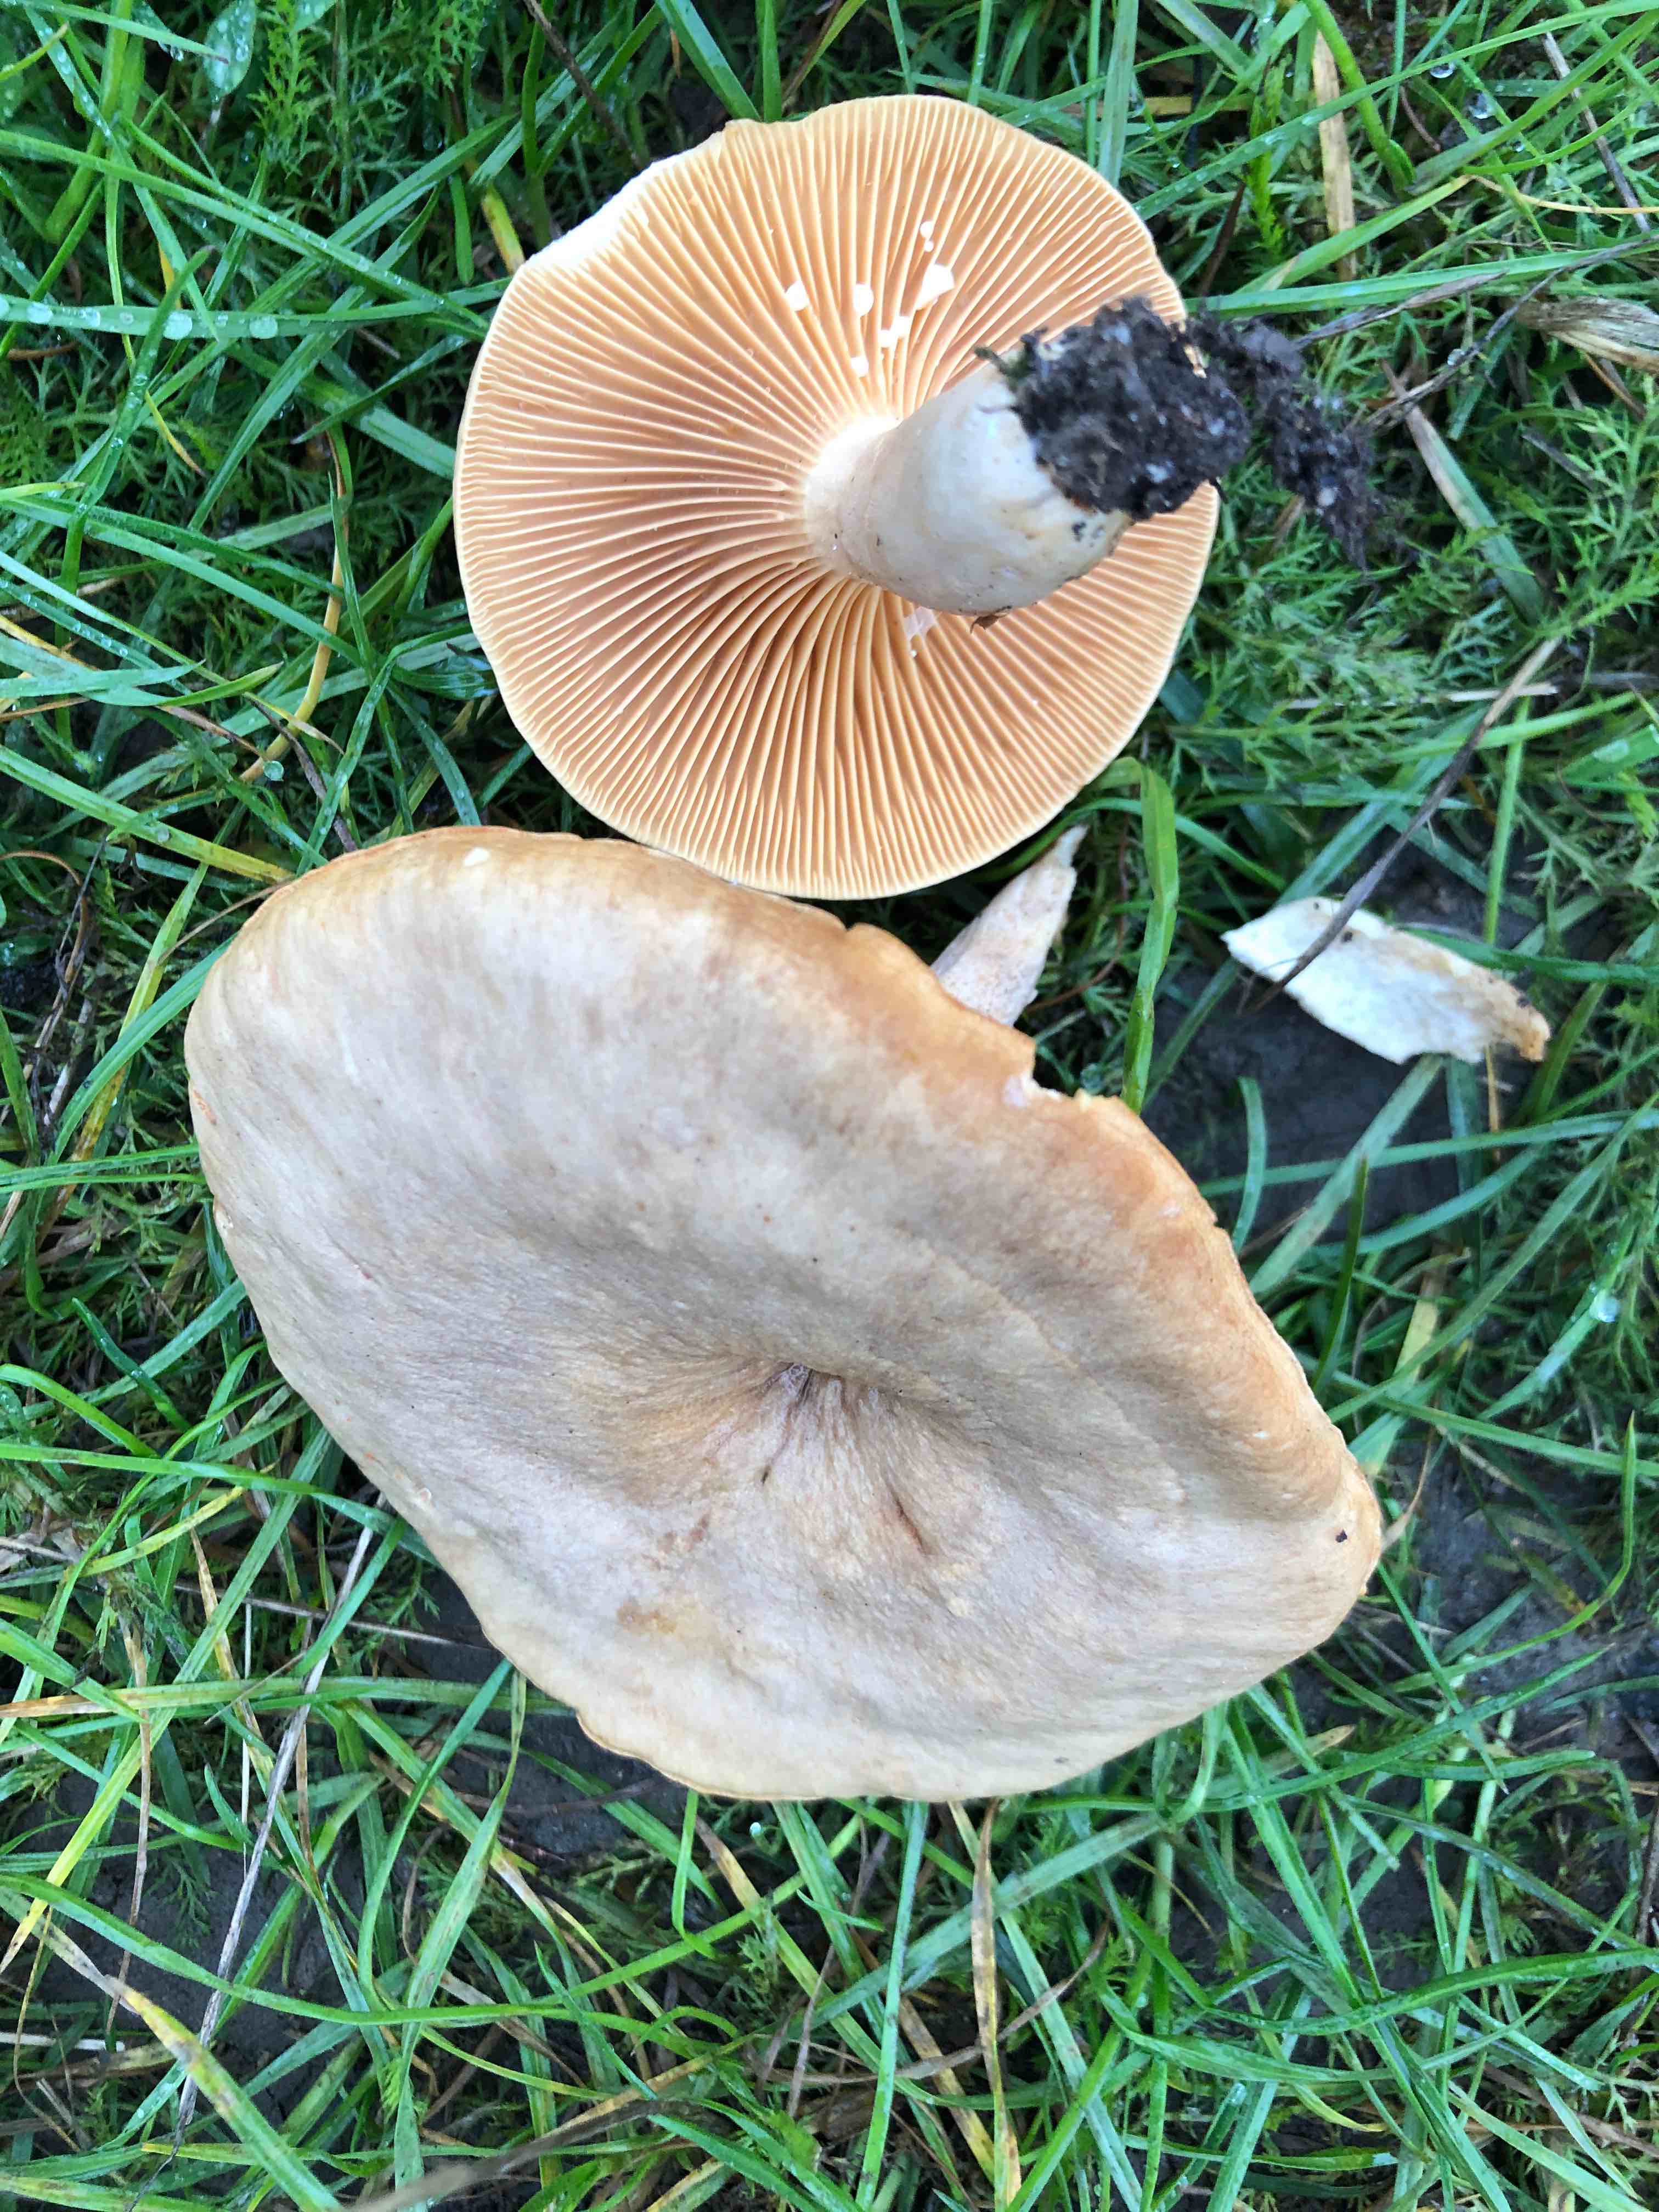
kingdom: Fungi
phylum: Basidiomycota
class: Agaricomycetes
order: Russulales
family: Russulaceae
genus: Lactarius
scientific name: Lactarius pyrogalus
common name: hassel-mælkehat
